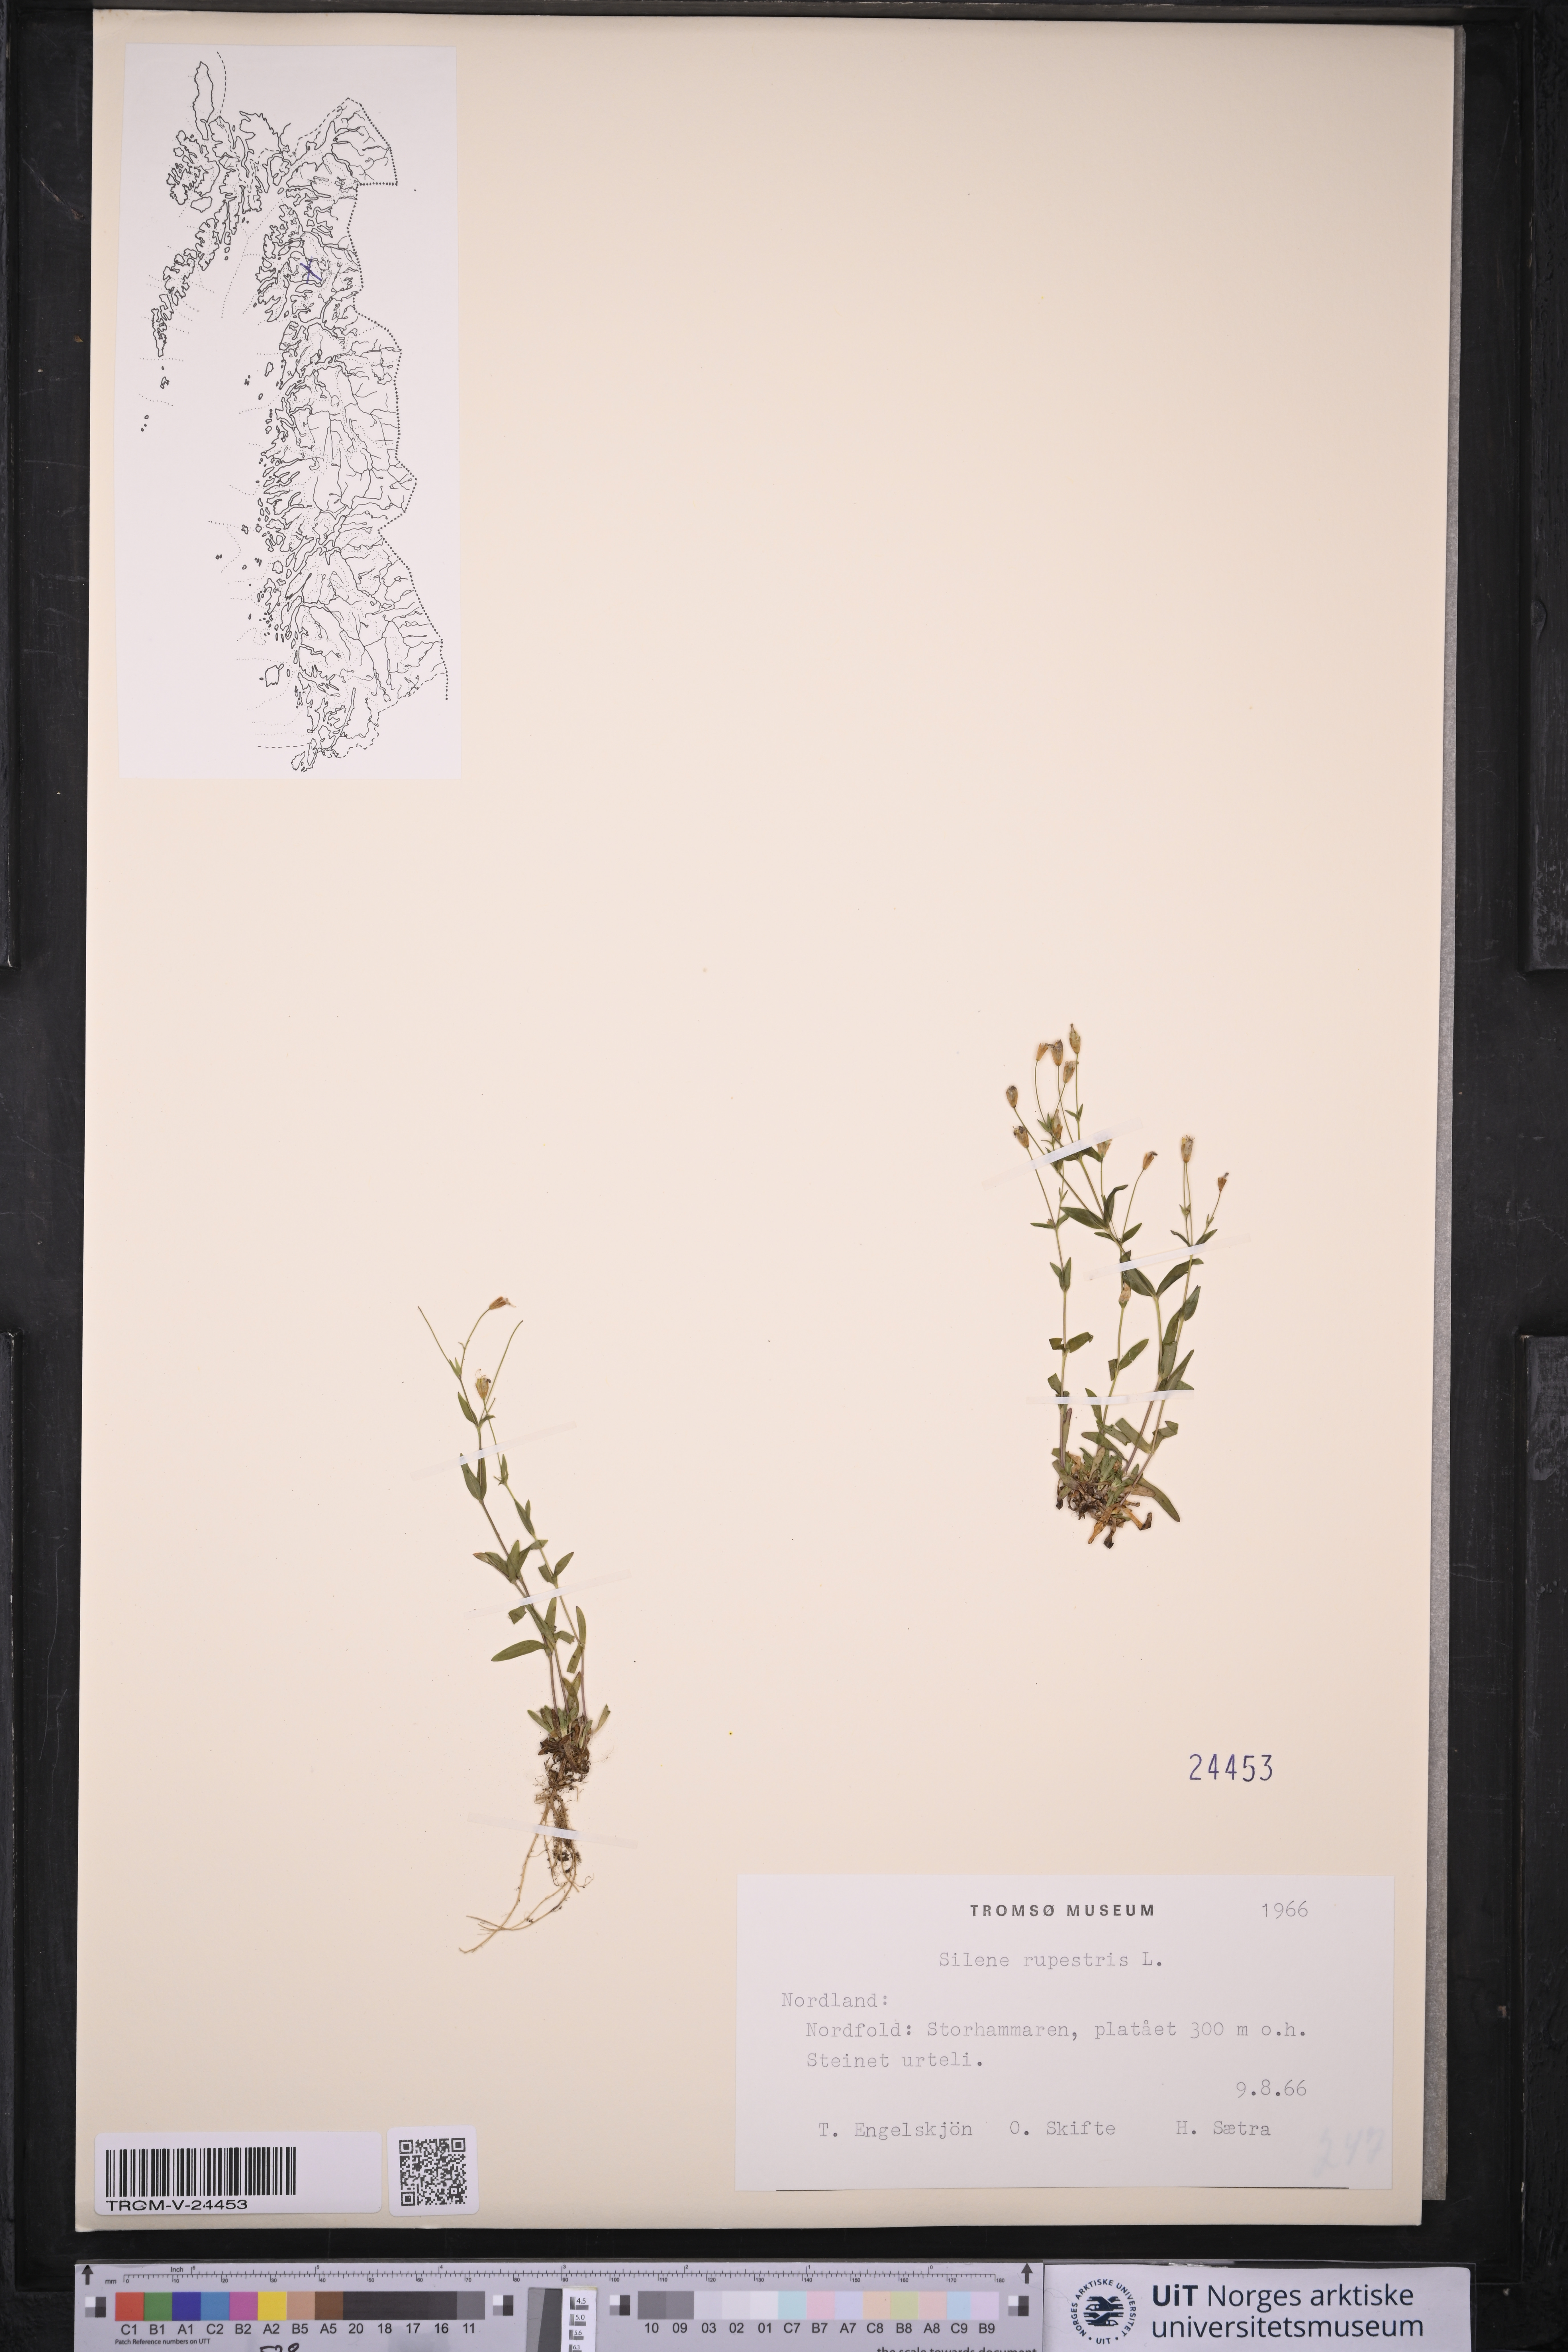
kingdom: Plantae
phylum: Tracheophyta
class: Magnoliopsida
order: Caryophyllales
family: Caryophyllaceae
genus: Atocion
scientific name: Atocion rupestre
